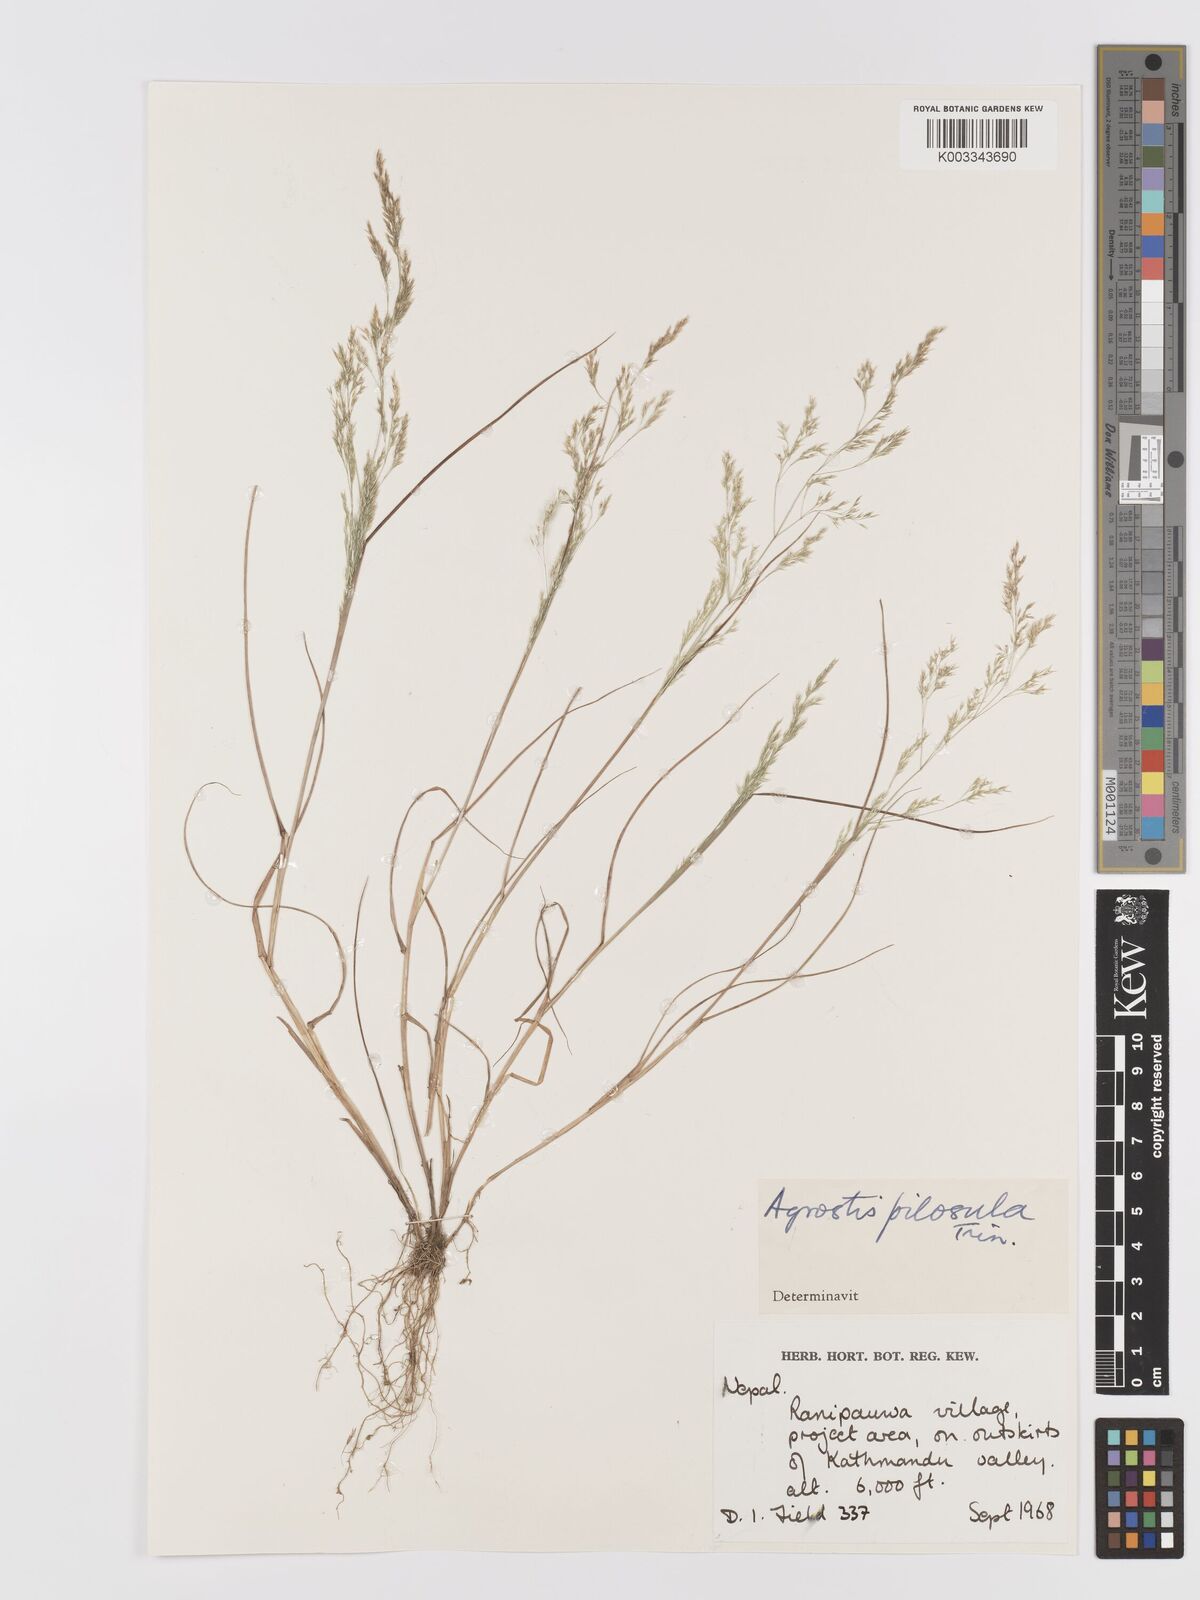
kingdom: Plantae
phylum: Tracheophyta
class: Liliopsida
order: Poales
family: Poaceae
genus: Agrostis
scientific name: Agrostis pilosula
